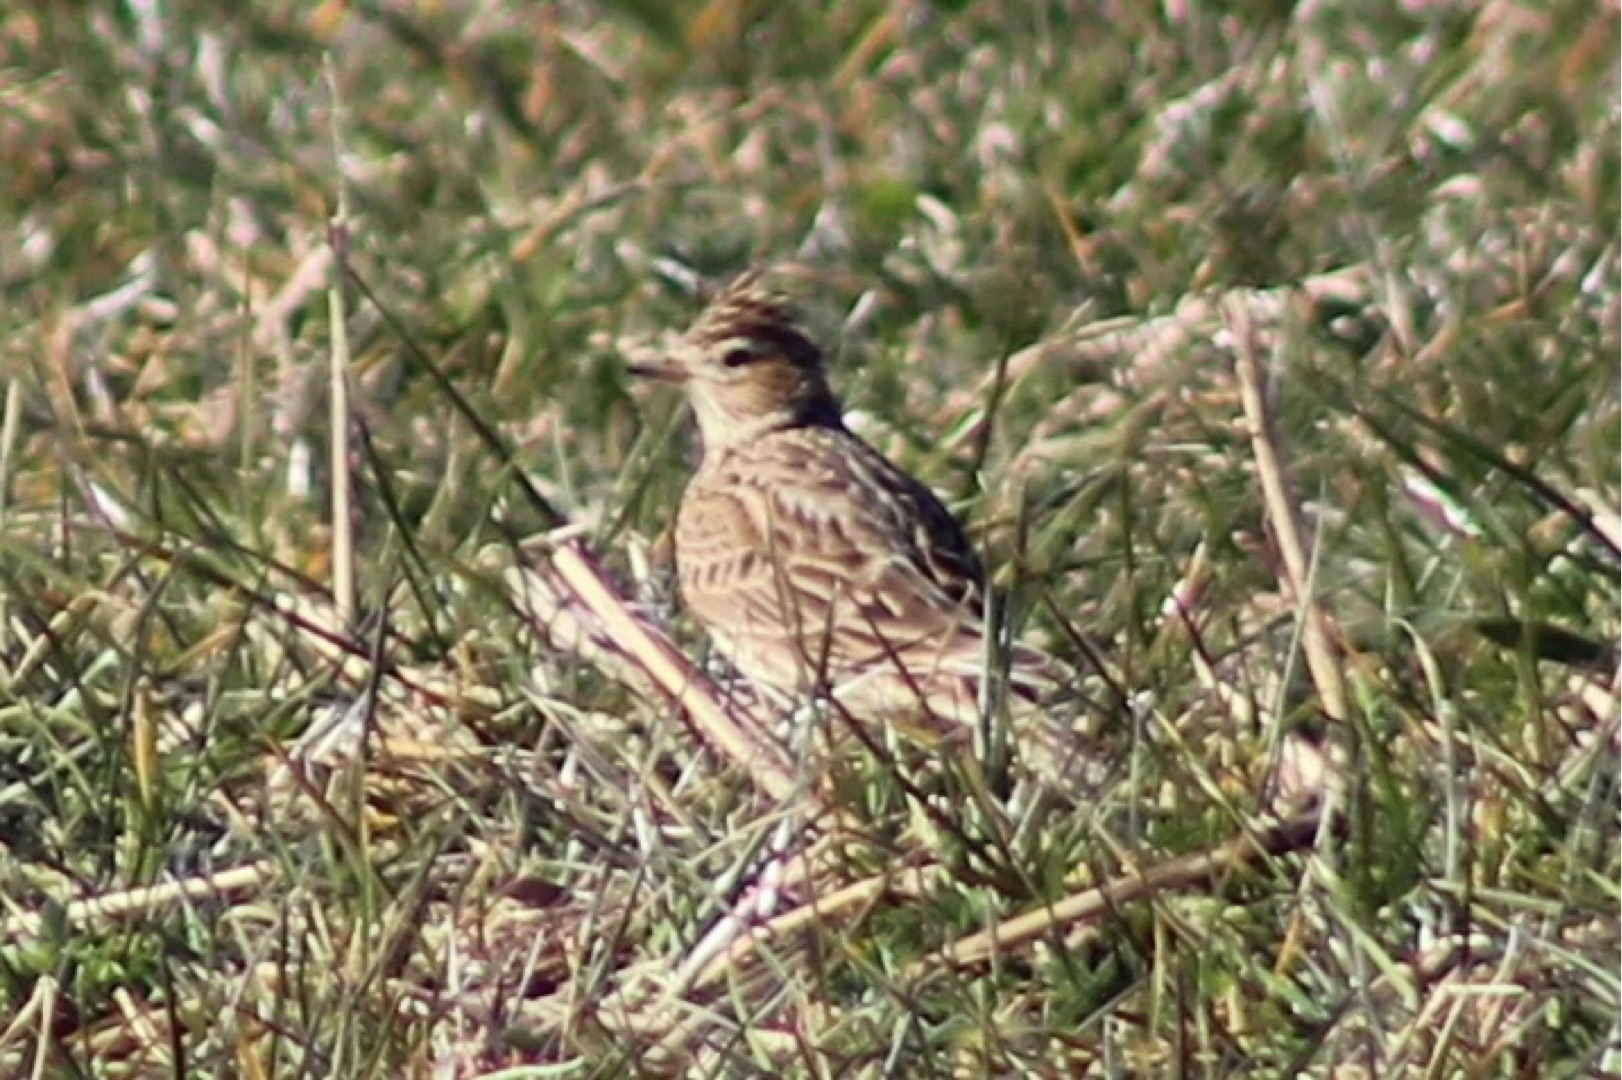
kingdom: Animalia
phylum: Chordata
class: Aves
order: Passeriformes
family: Alaudidae
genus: Alauda
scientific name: Alauda arvensis
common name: Sanglærke
